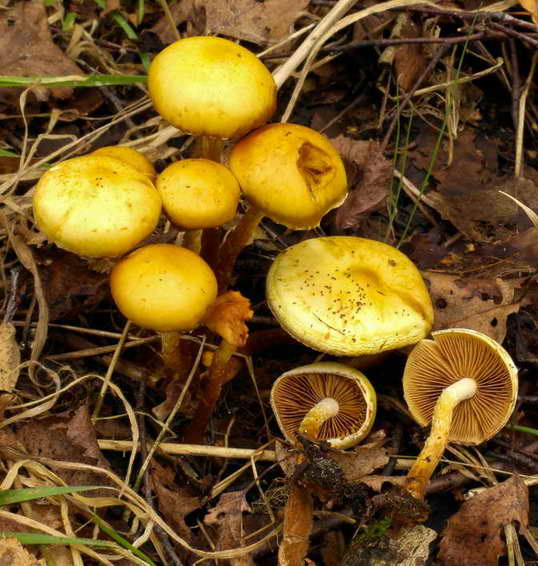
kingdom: Fungi
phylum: Basidiomycota
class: Agaricomycetes
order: Agaricales
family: Hymenogastraceae
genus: Flammula
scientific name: Flammula alnicola
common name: elle-skælhat
